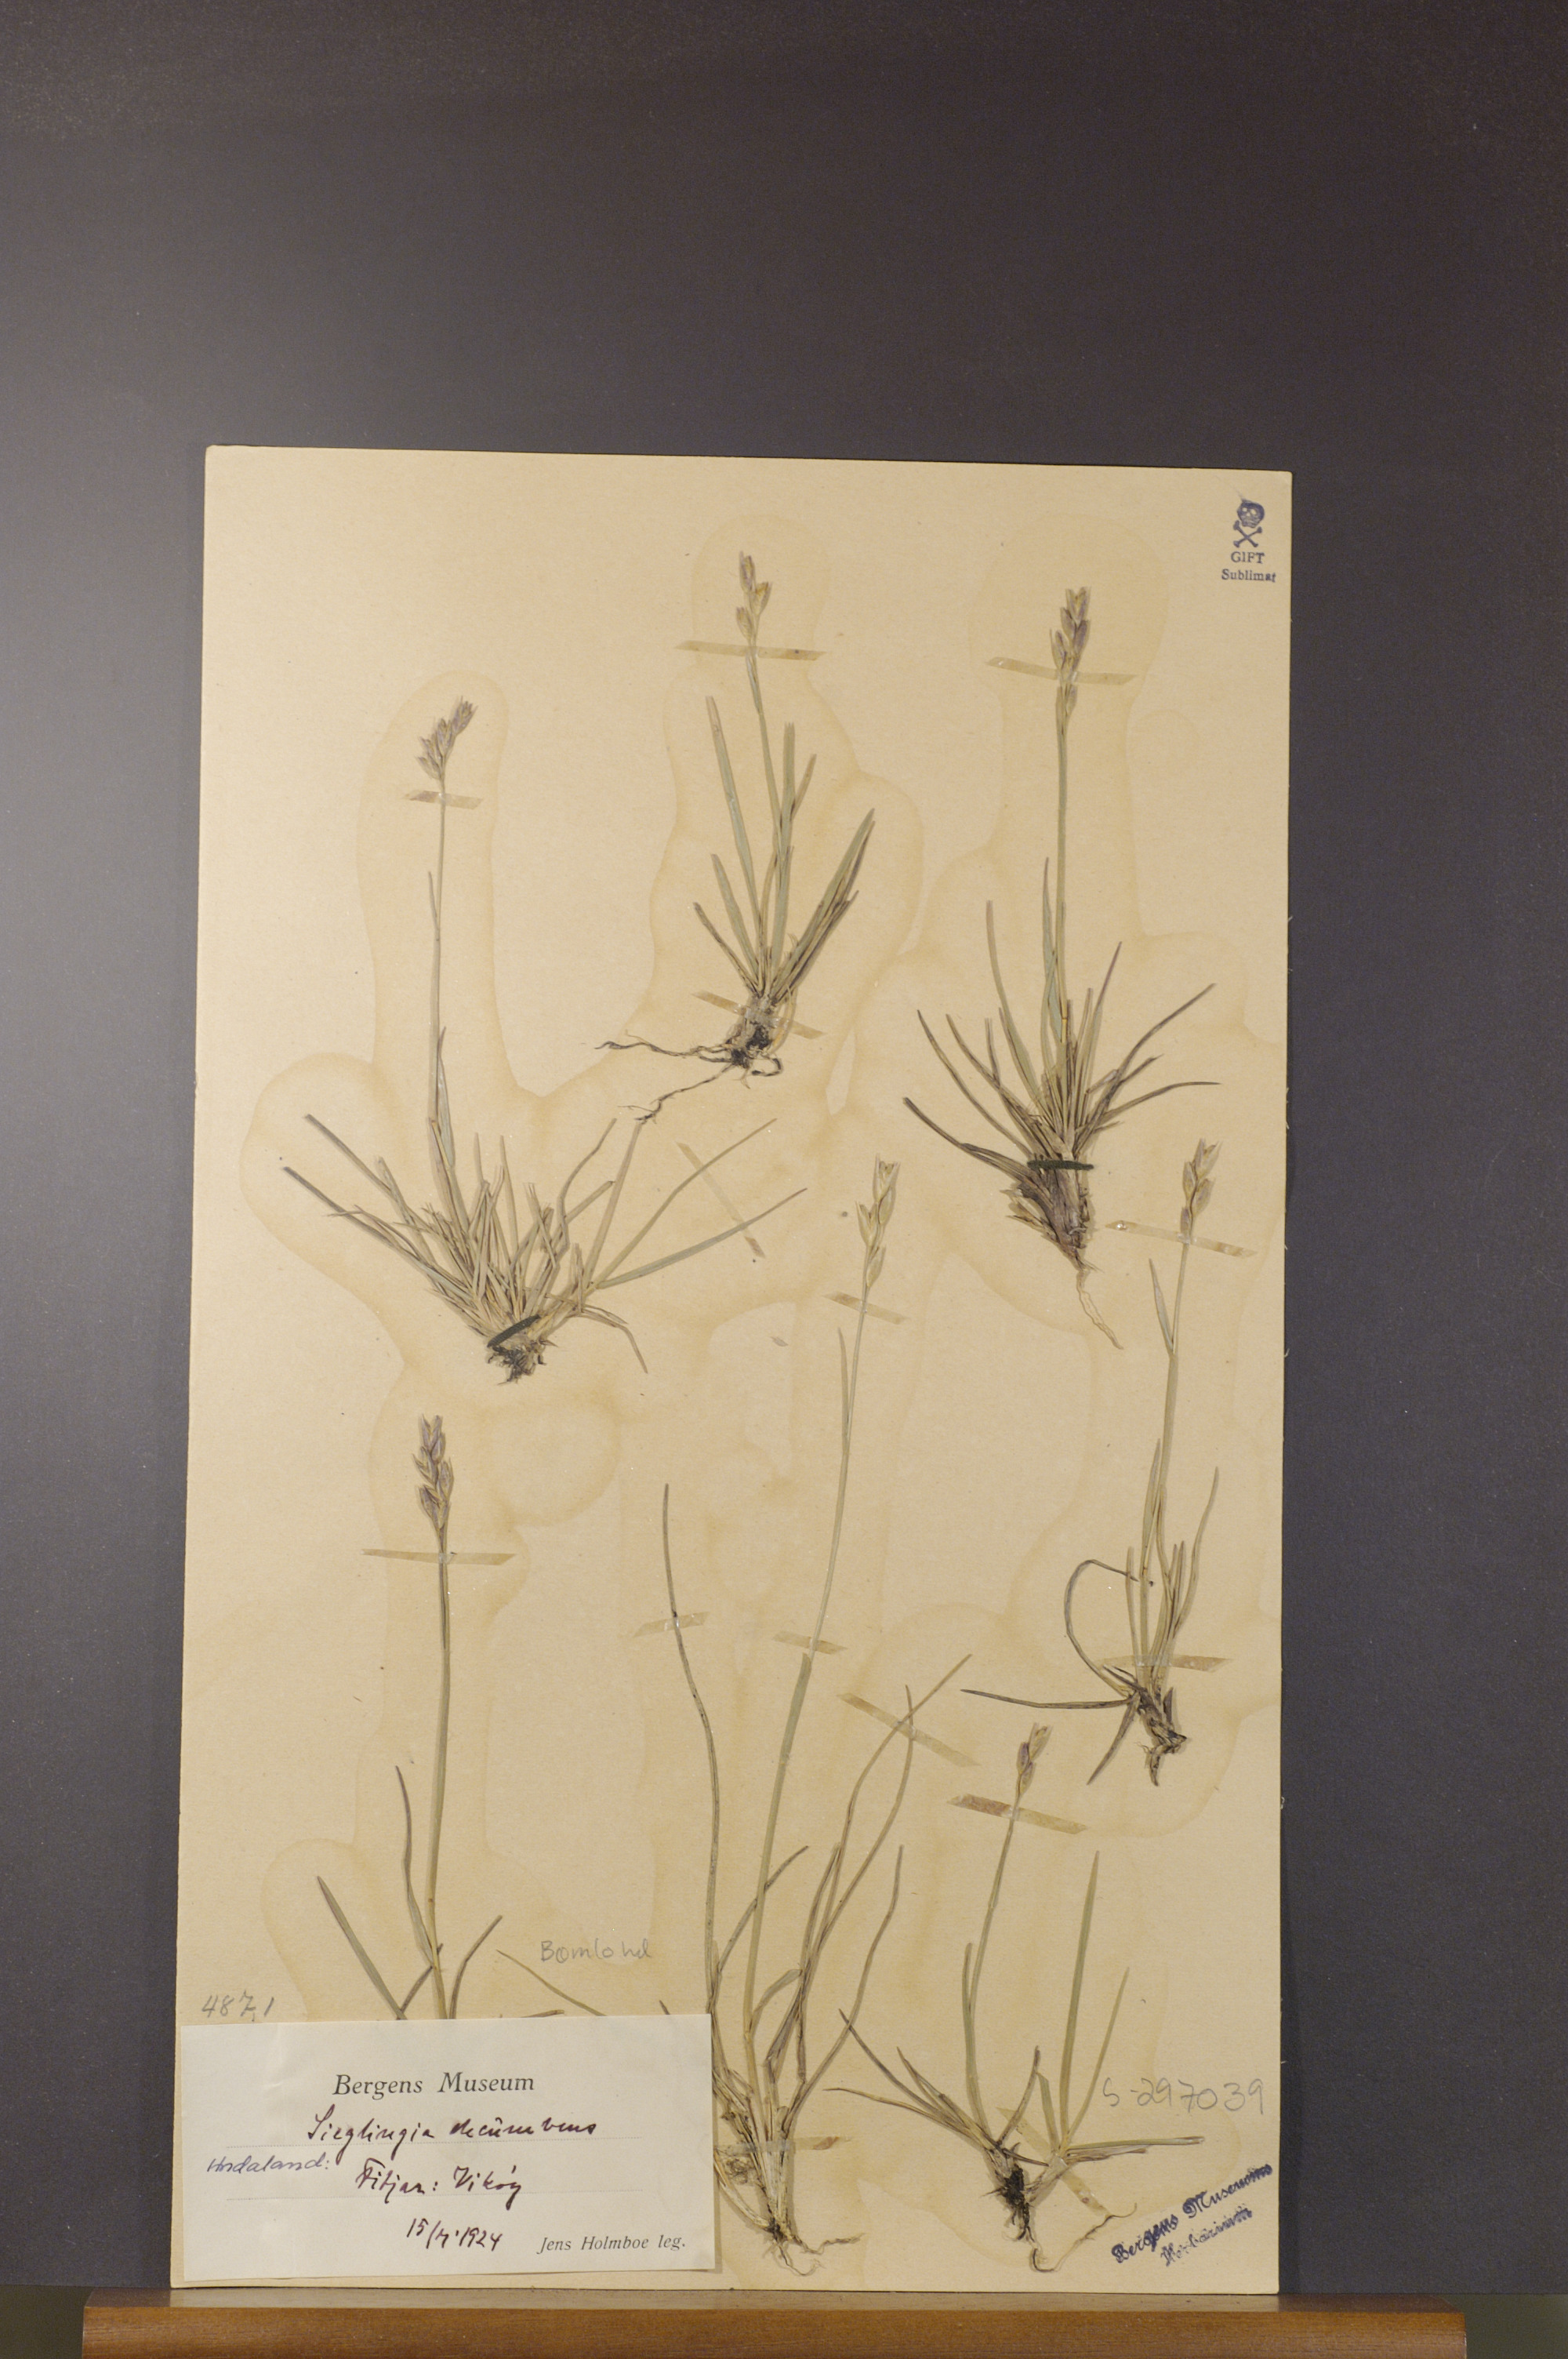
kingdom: Plantae
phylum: Tracheophyta
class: Liliopsida
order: Poales
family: Poaceae
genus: Danthonia
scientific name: Danthonia decumbens
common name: Common heathgrass
